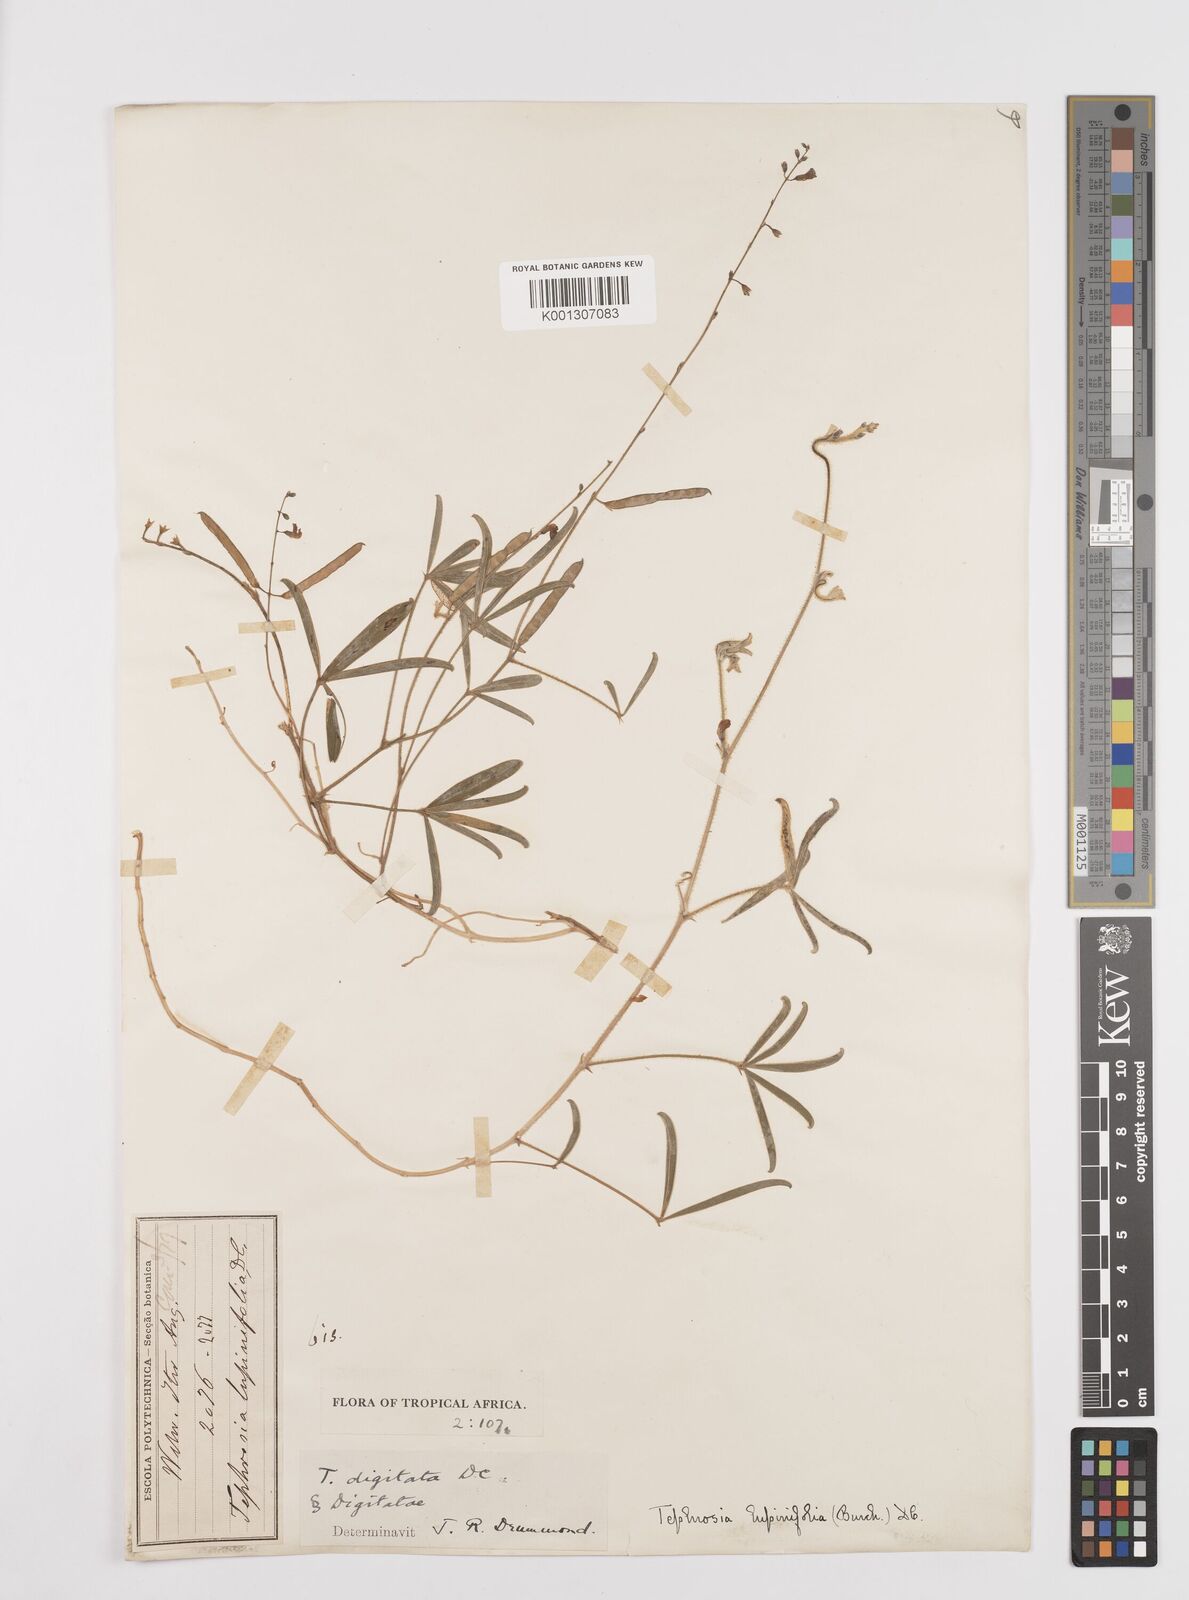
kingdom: Plantae
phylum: Tracheophyta
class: Magnoliopsida
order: Fabales
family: Fabaceae
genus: Tephrosia
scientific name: Tephrosia lupinifolia
